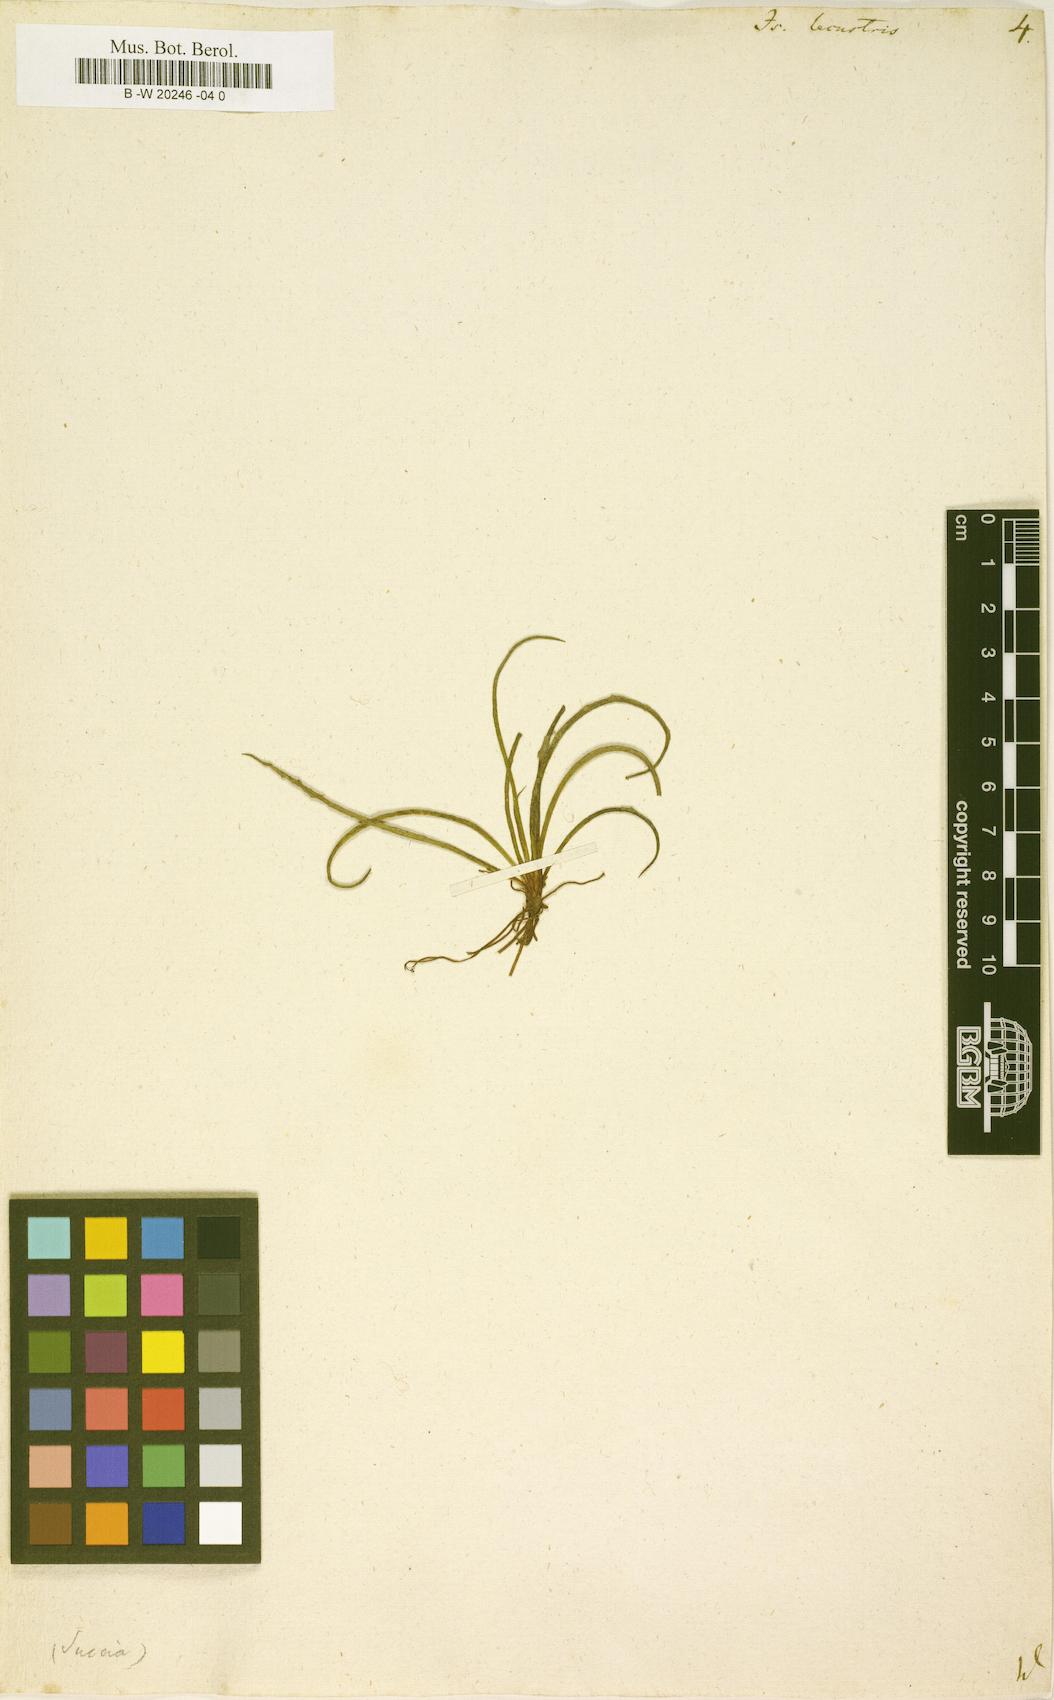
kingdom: Plantae
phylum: Tracheophyta
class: Lycopodiopsida
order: Isoetales
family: Isoetaceae
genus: Isoetes
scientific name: Isoetes lacustris
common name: Common quillwort
